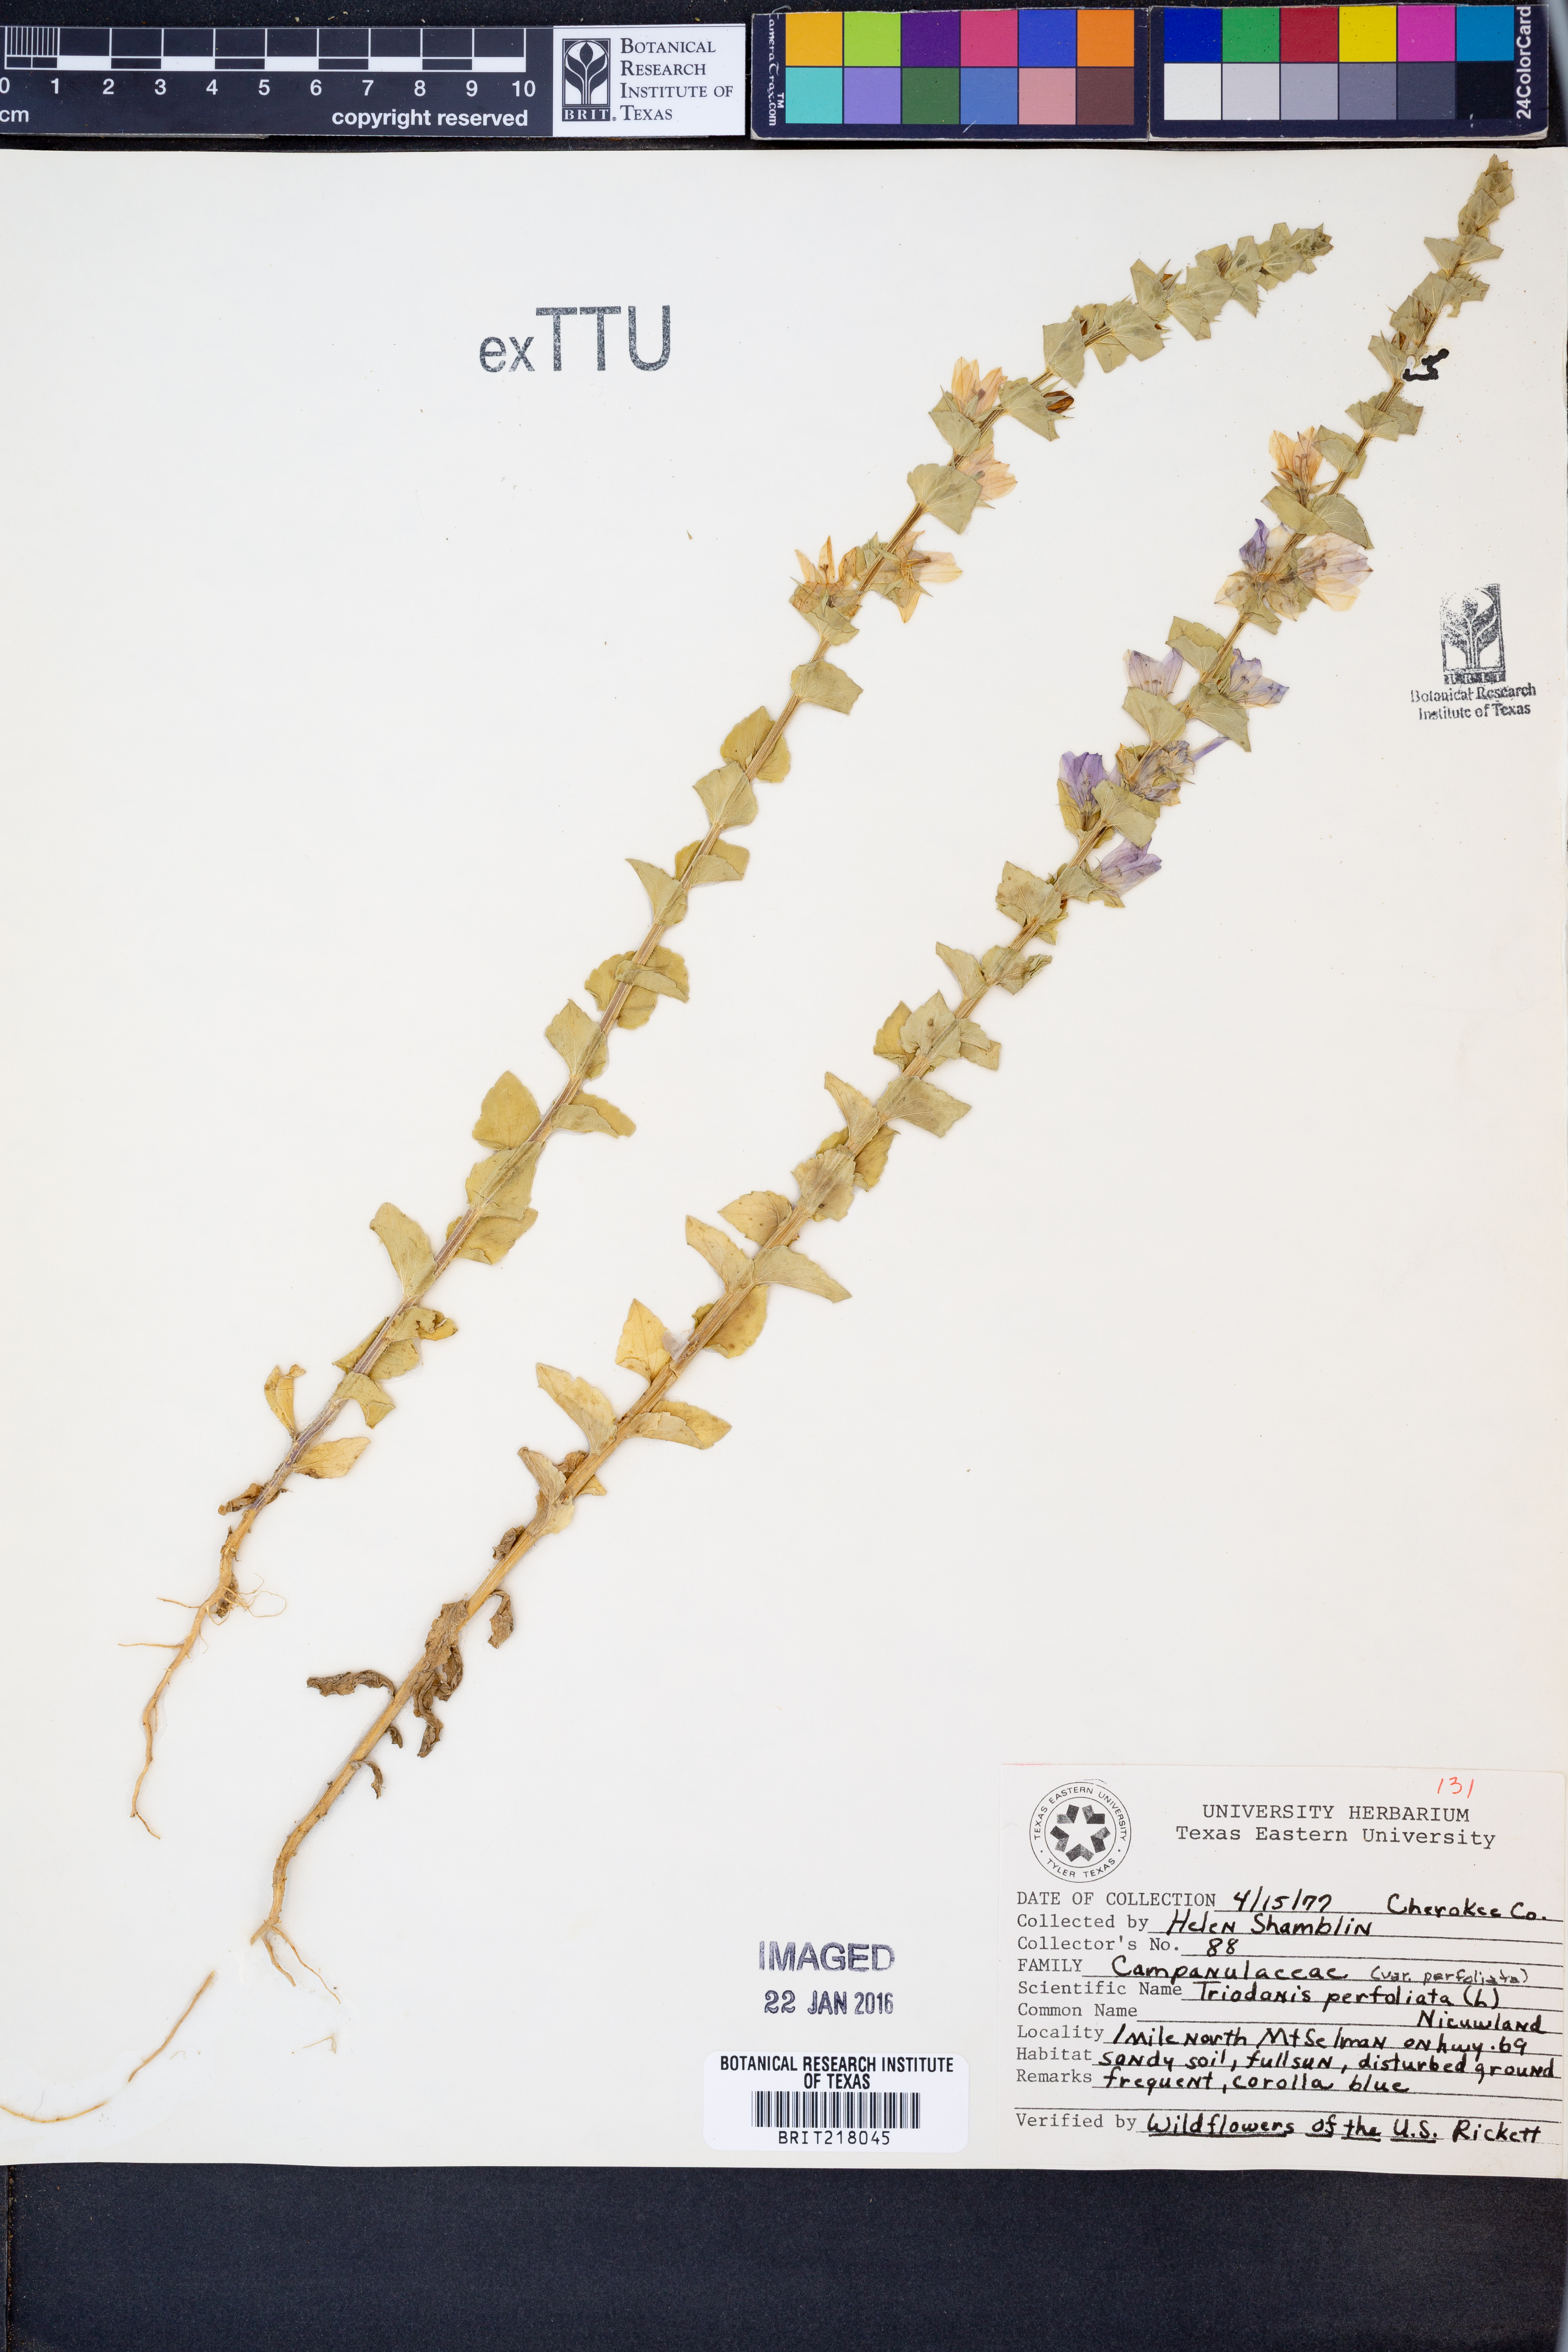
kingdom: Plantae
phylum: Tracheophyta
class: Magnoliopsida
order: Asterales
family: Campanulaceae
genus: Triodanis
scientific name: Triodanis perfoliata
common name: Clasping venus' looking-glass
